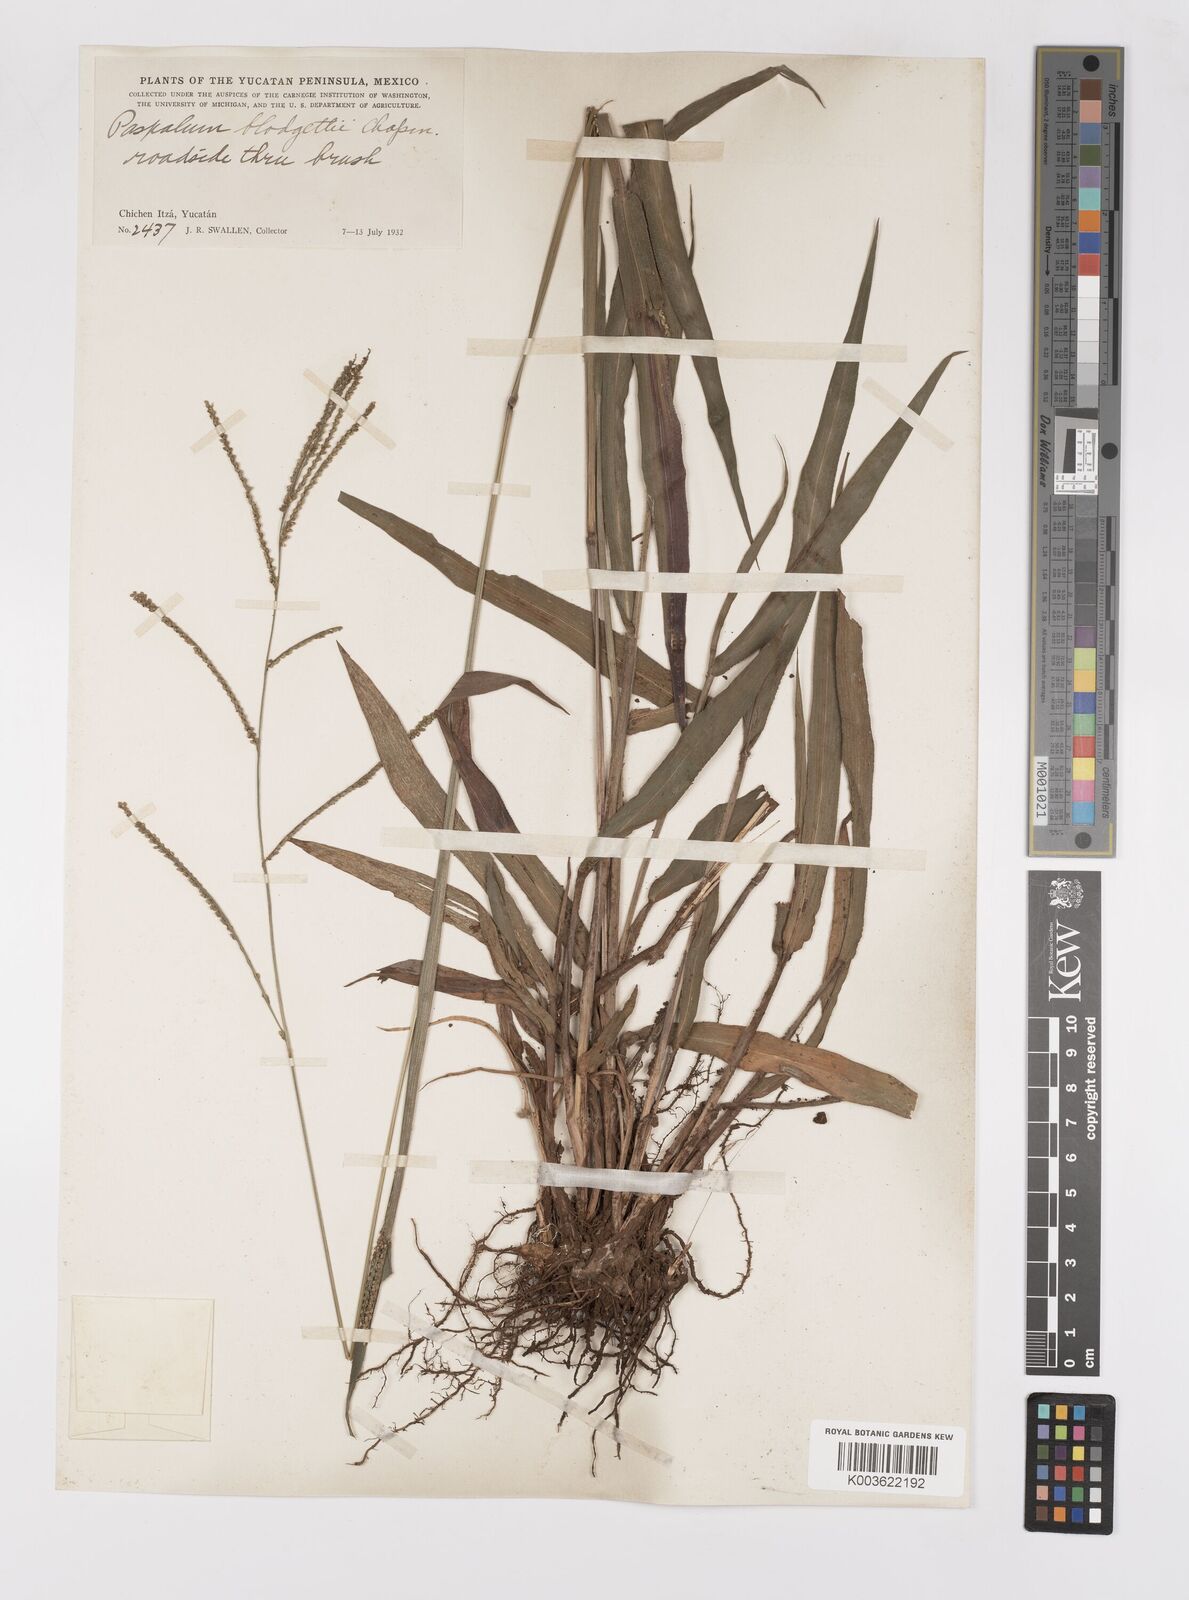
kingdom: Plantae
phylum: Tracheophyta
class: Liliopsida
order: Poales
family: Poaceae
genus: Paspalum
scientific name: Paspalum blodgettii
